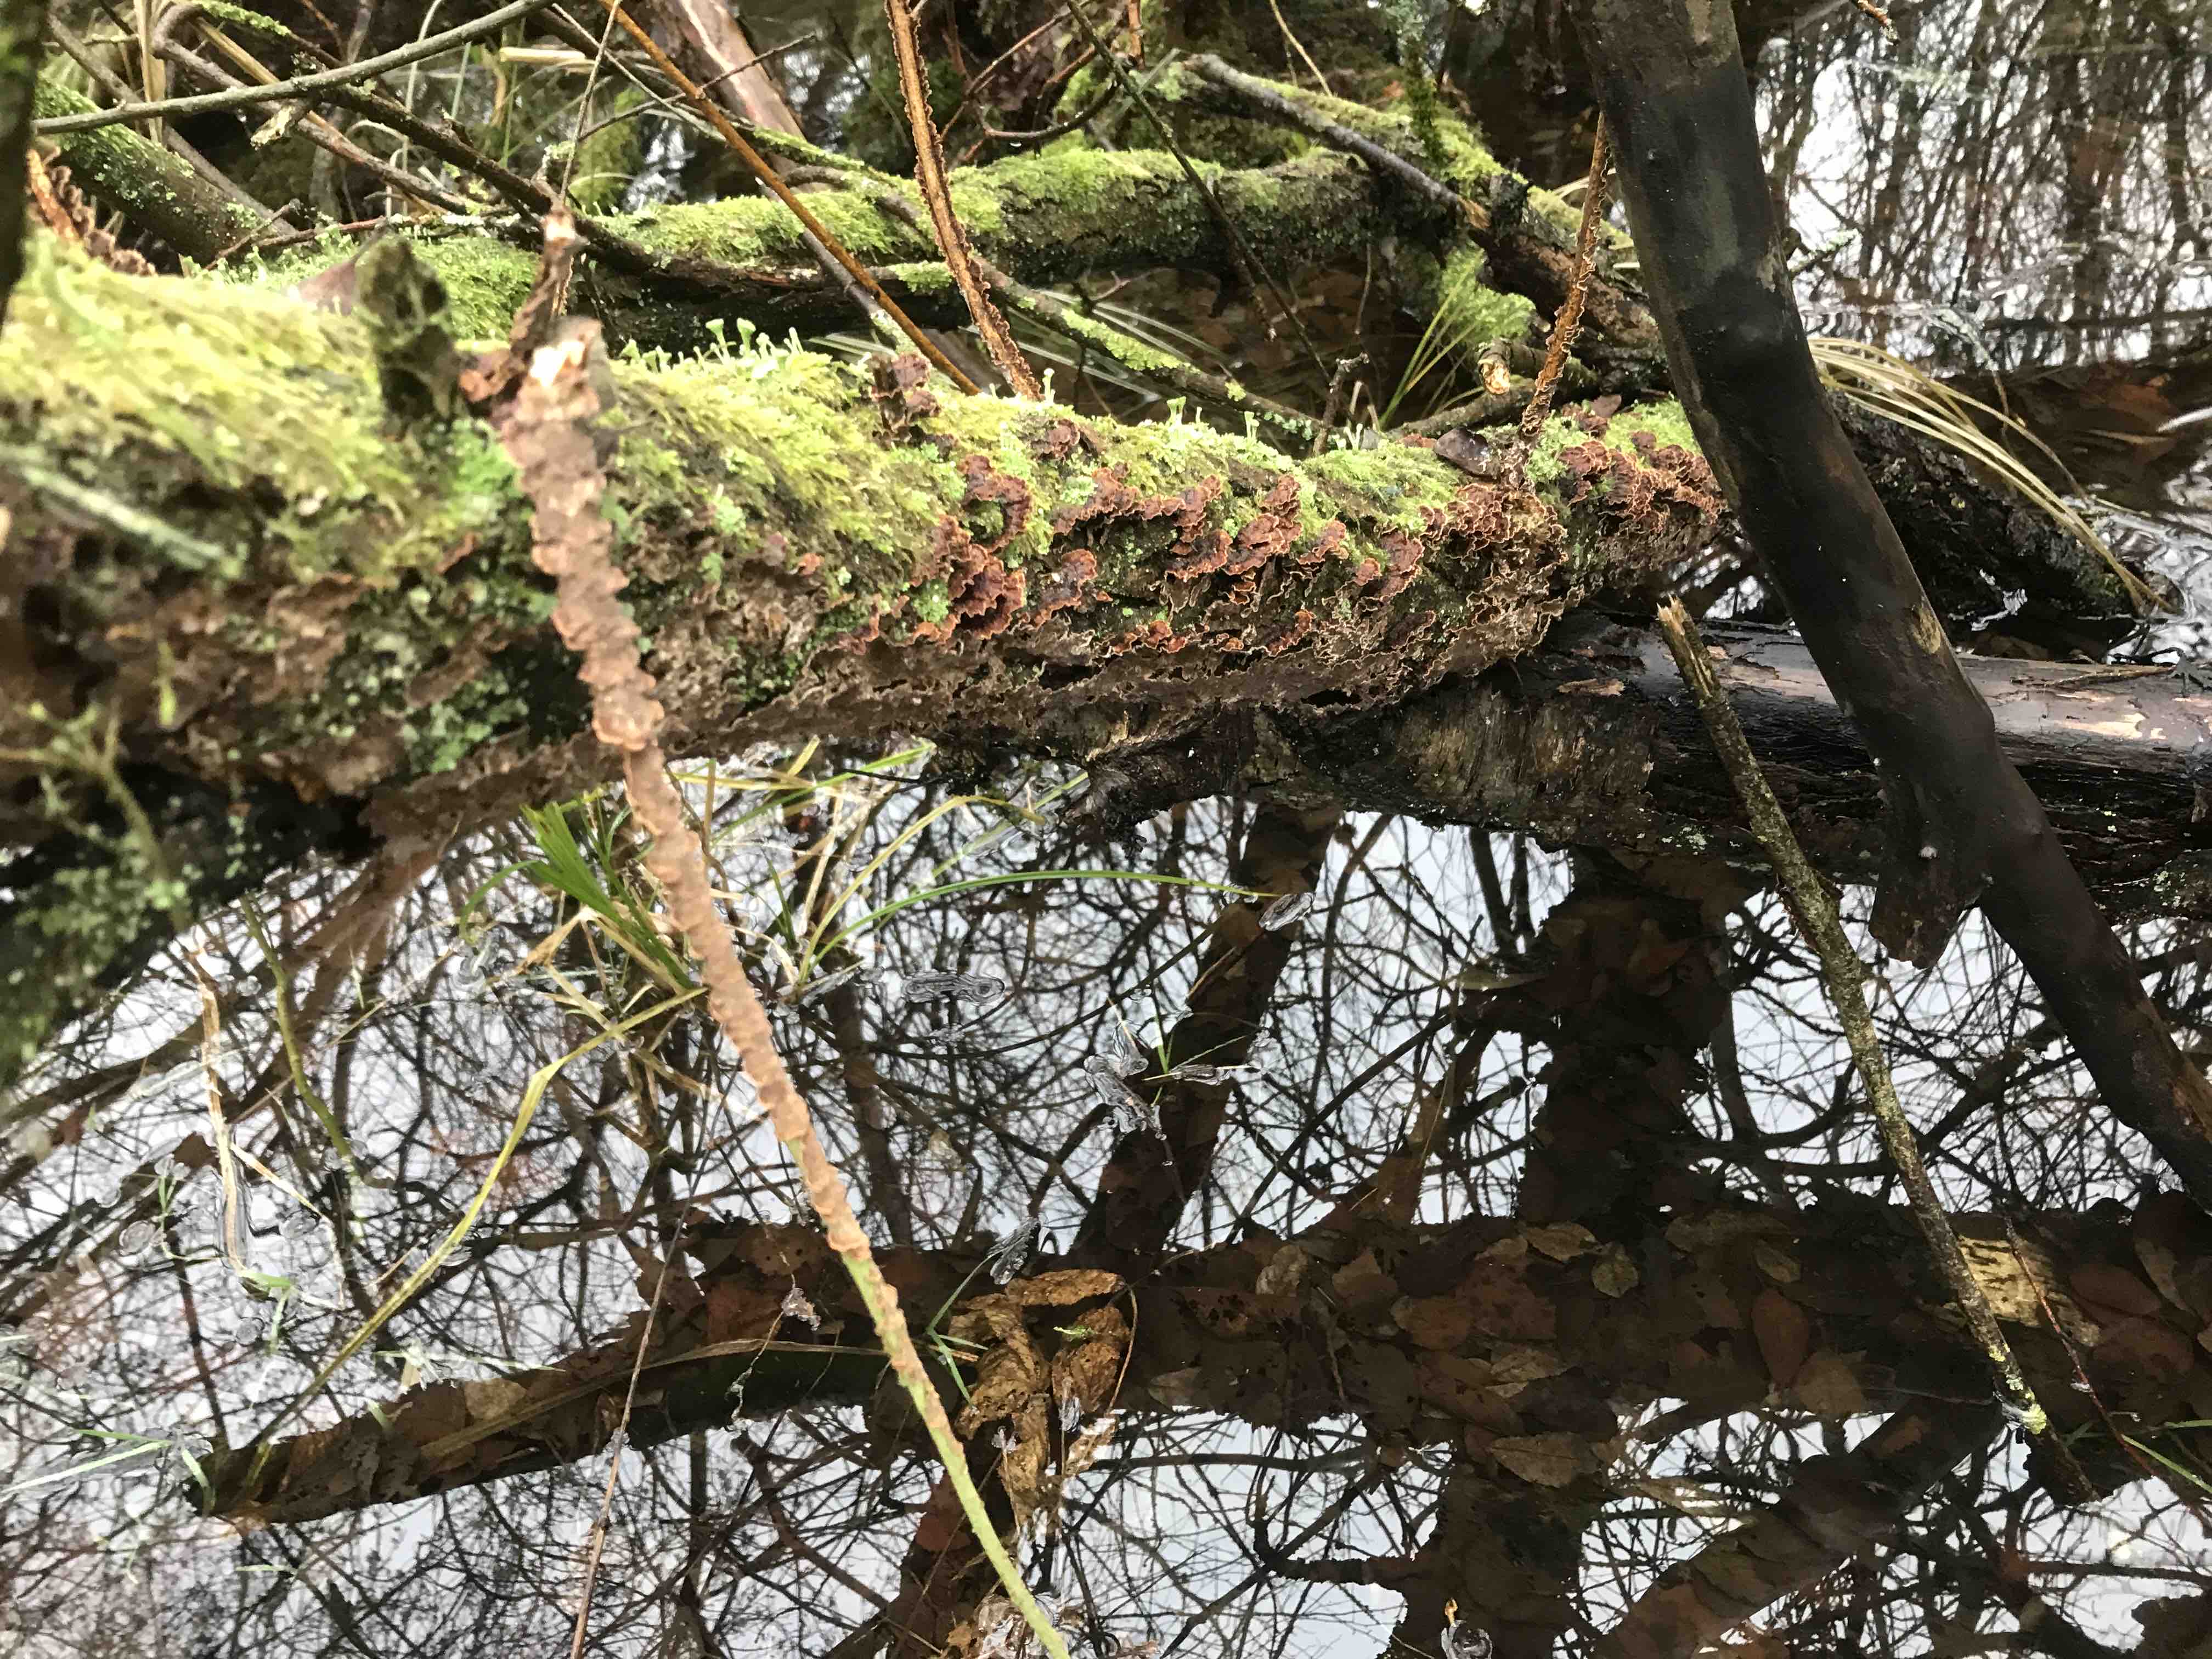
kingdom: Fungi
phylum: Basidiomycota
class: Agaricomycetes
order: Hymenochaetales
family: Hymenochaetaceae
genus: Hydnoporia
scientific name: Hydnoporia tabacina
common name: tobaksbrun ruslædersvamp
